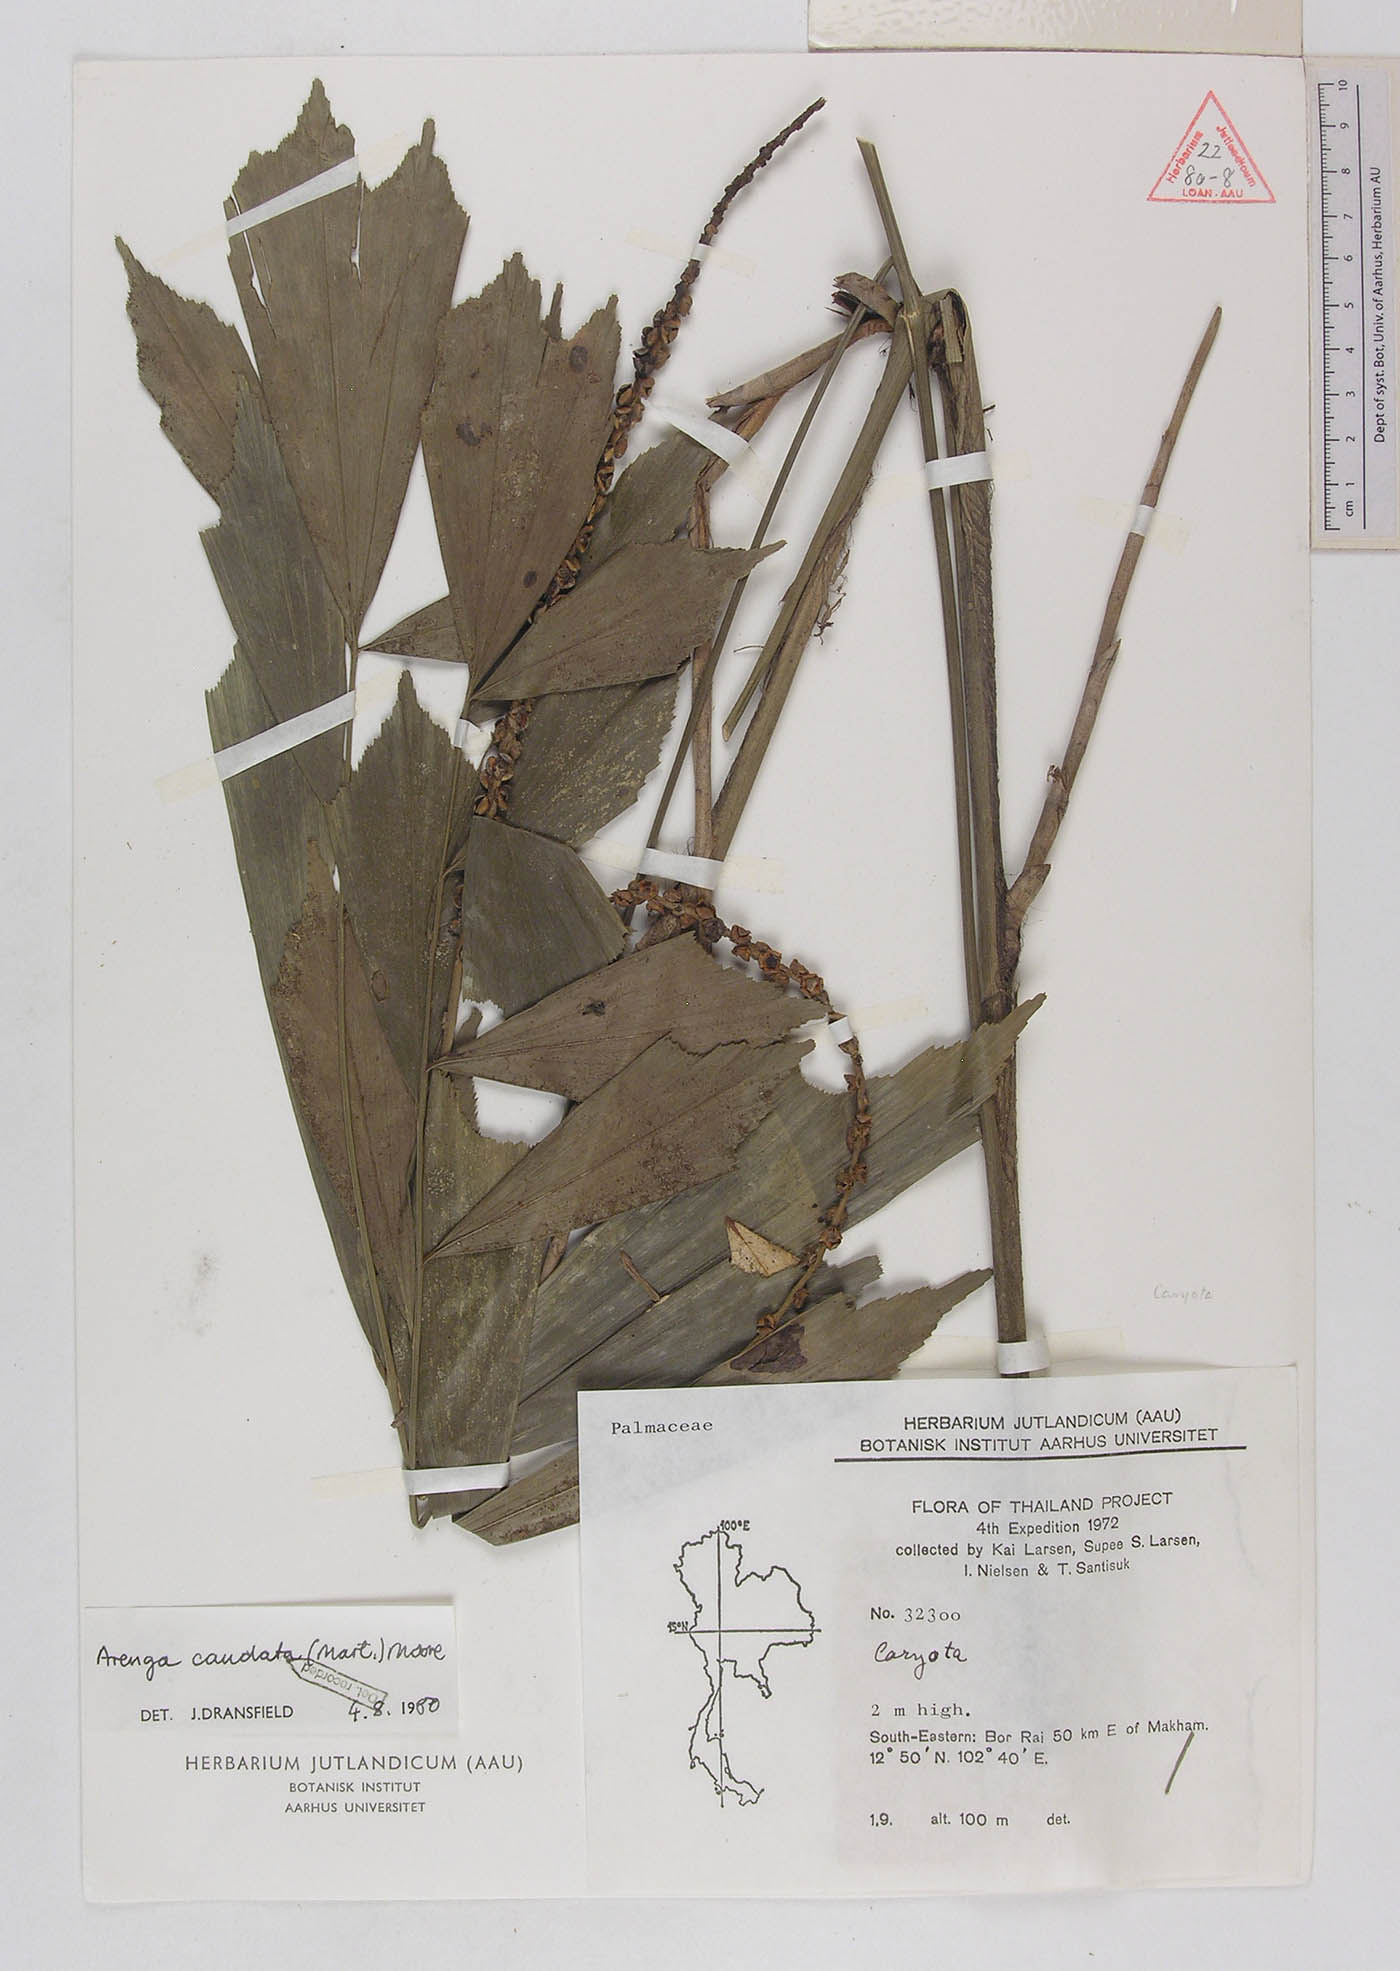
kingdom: Plantae
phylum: Tracheophyta
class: Liliopsida
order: Arecales
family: Arecaceae
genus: Arenga
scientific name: Arenga caudata
